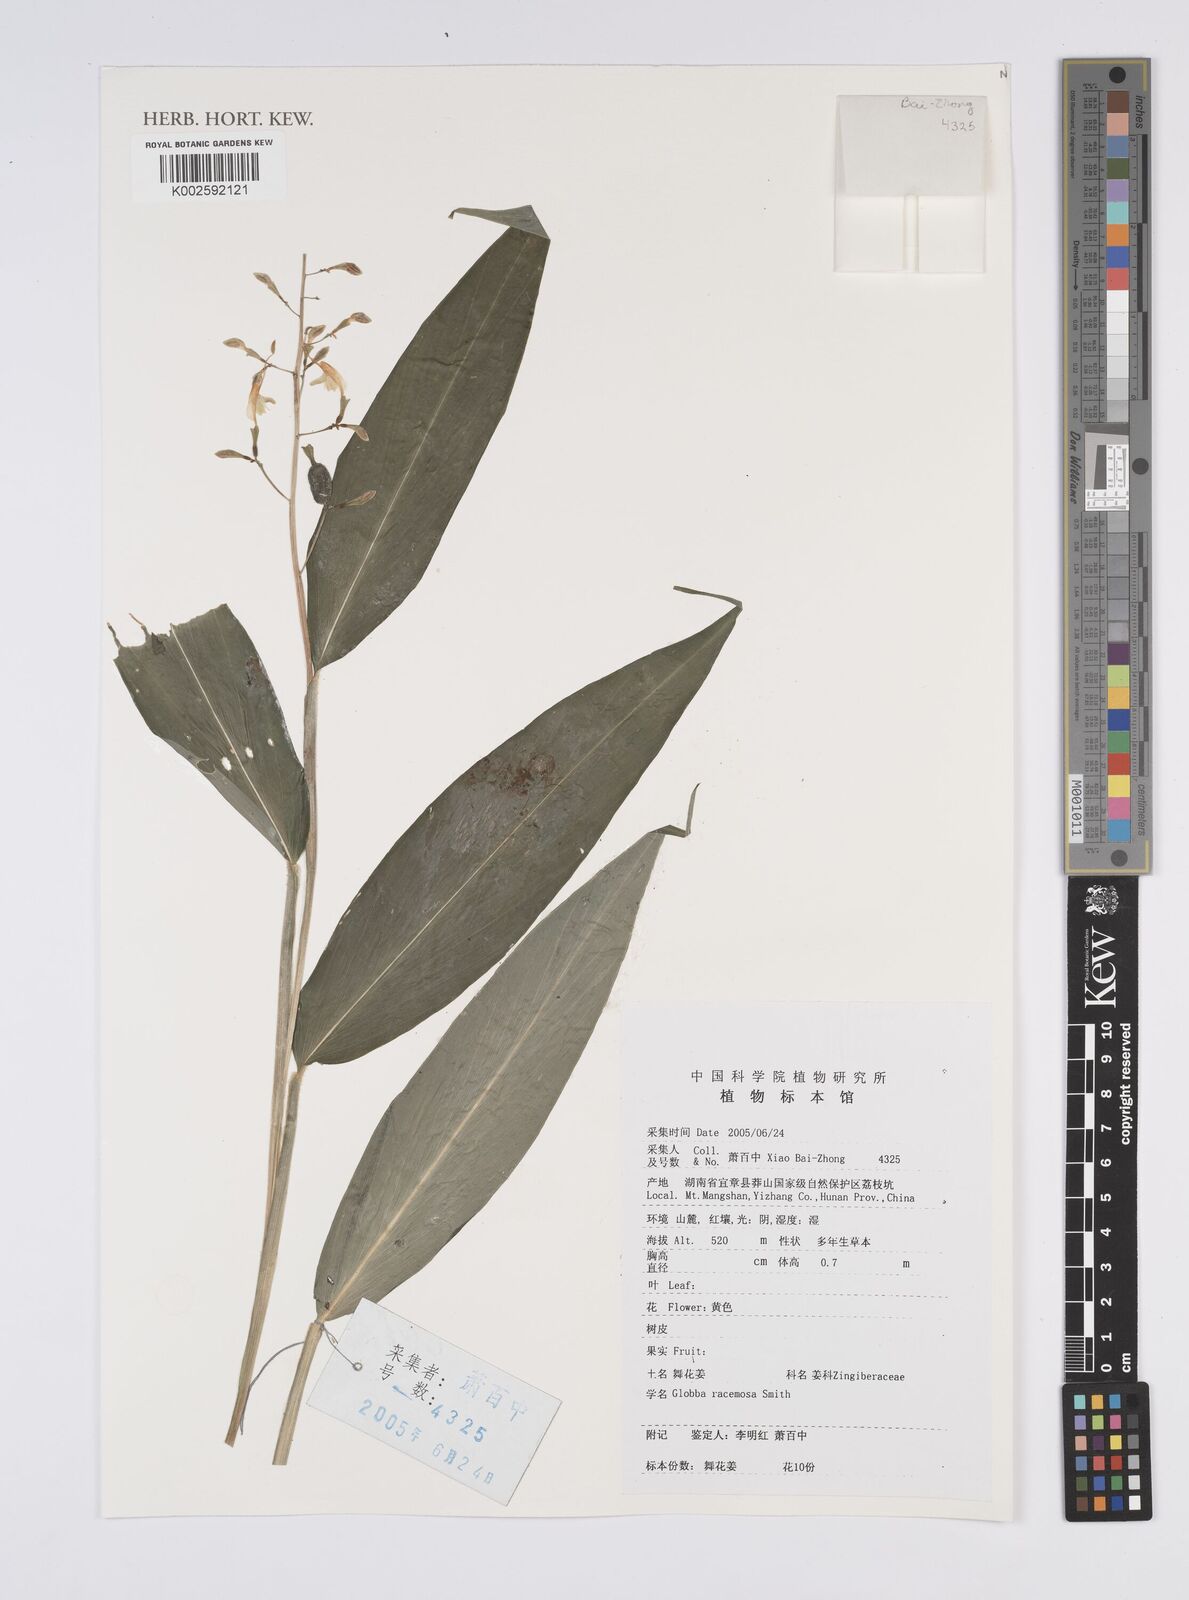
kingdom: Plantae
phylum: Tracheophyta
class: Liliopsida
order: Zingiberales
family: Zingiberaceae
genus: Globba
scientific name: Globba racemosa
